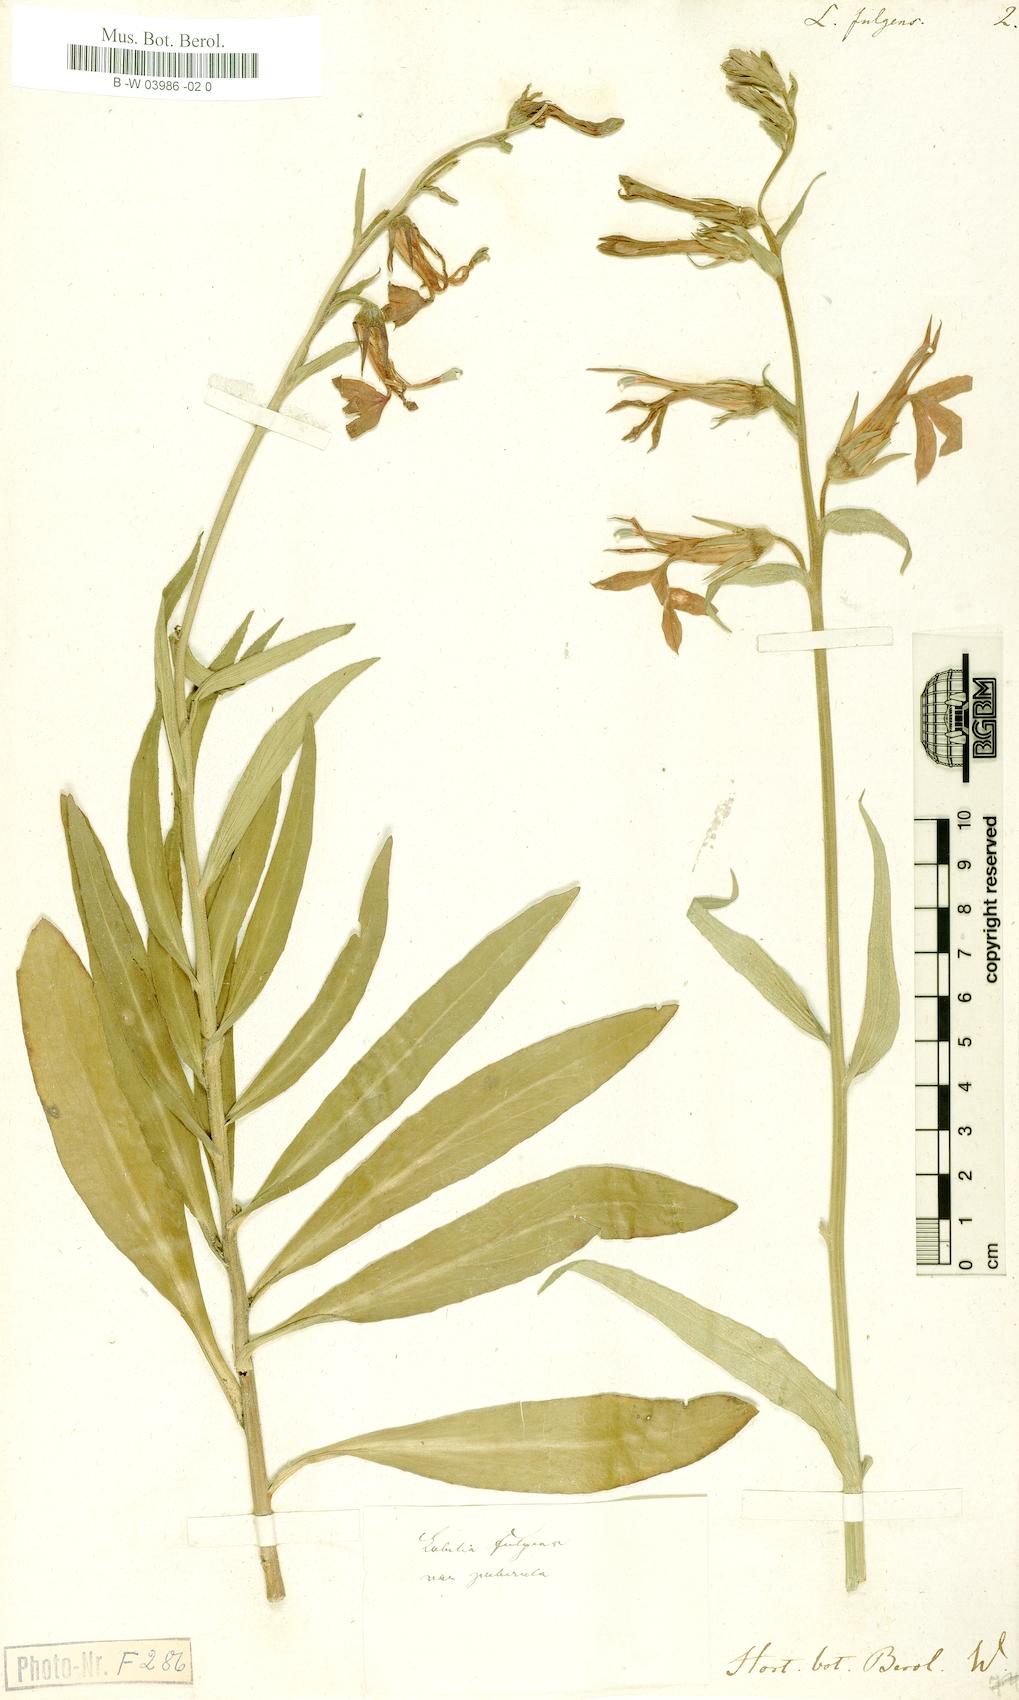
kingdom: Plantae
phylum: Tracheophyta
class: Magnoliopsida
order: Asterales
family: Campanulaceae
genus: Lobelia
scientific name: Lobelia cardinalis
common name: Cardinal flower
